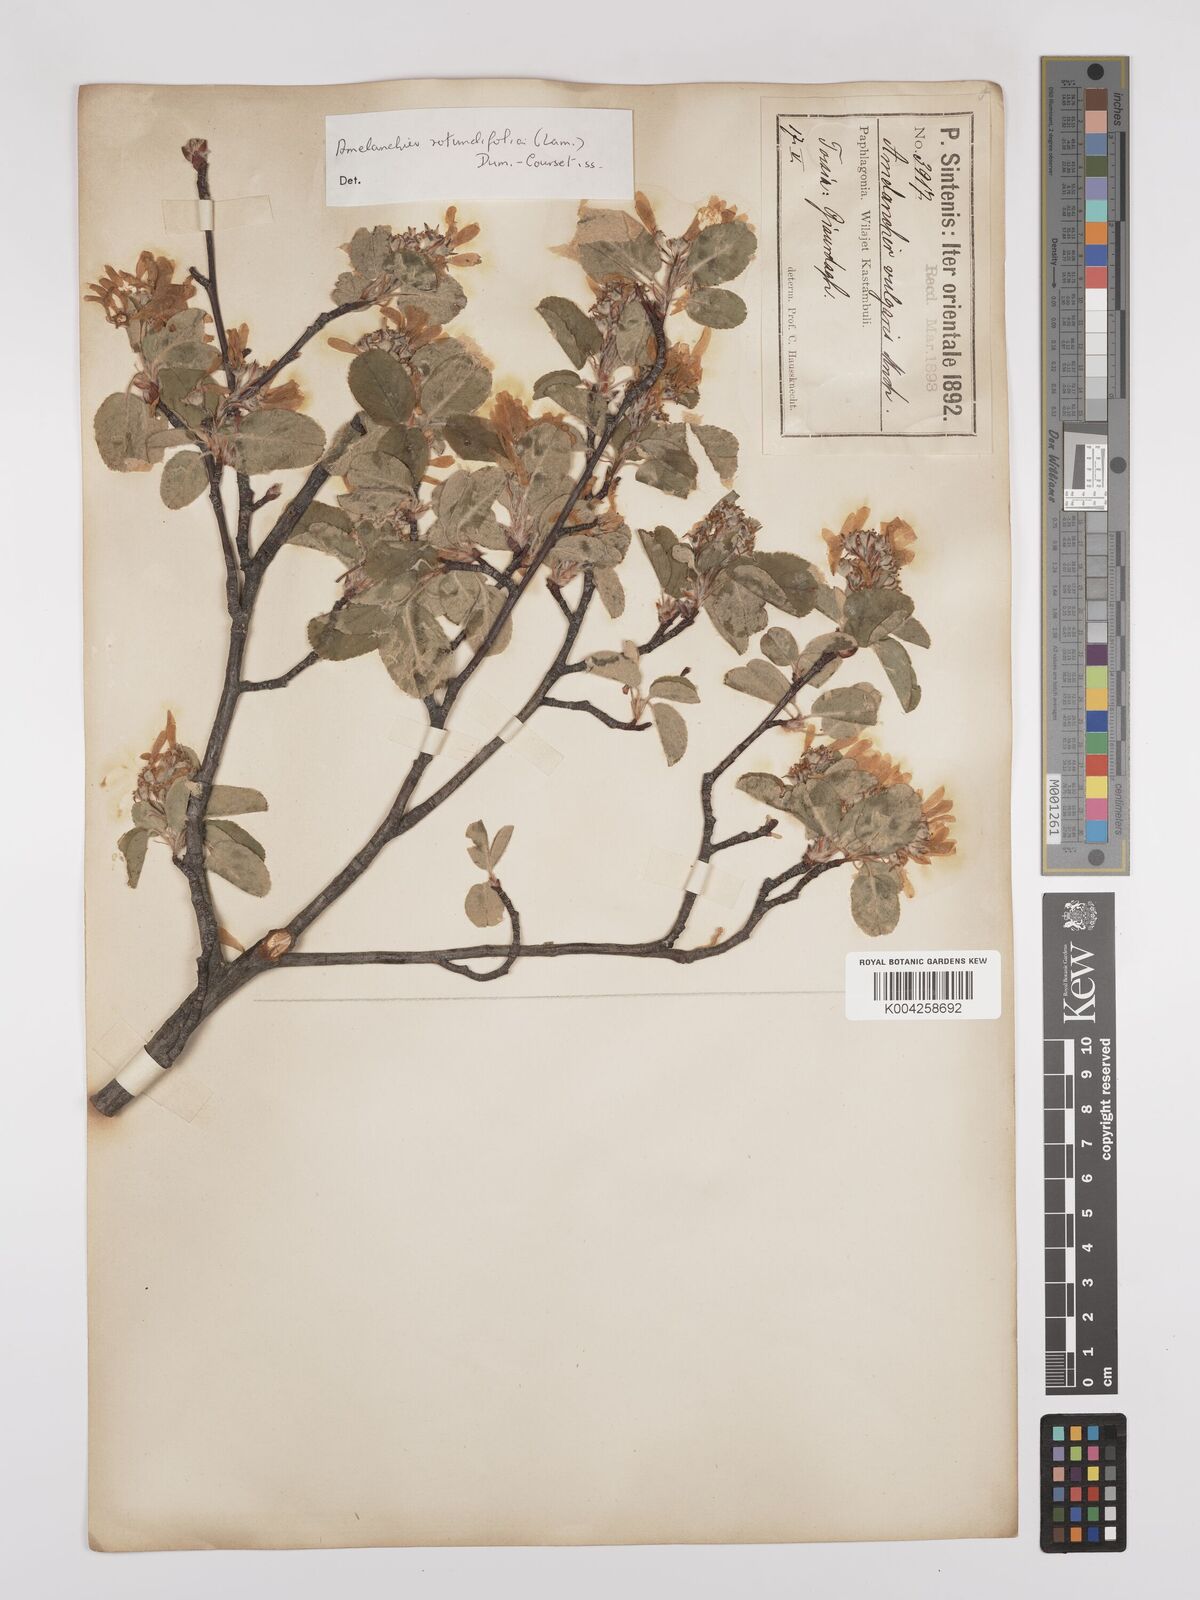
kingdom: Plantae
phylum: Tracheophyta
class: Magnoliopsida
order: Rosales
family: Rosaceae
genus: Amelanchier
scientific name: Amelanchier ovalis
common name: Serviceberry
